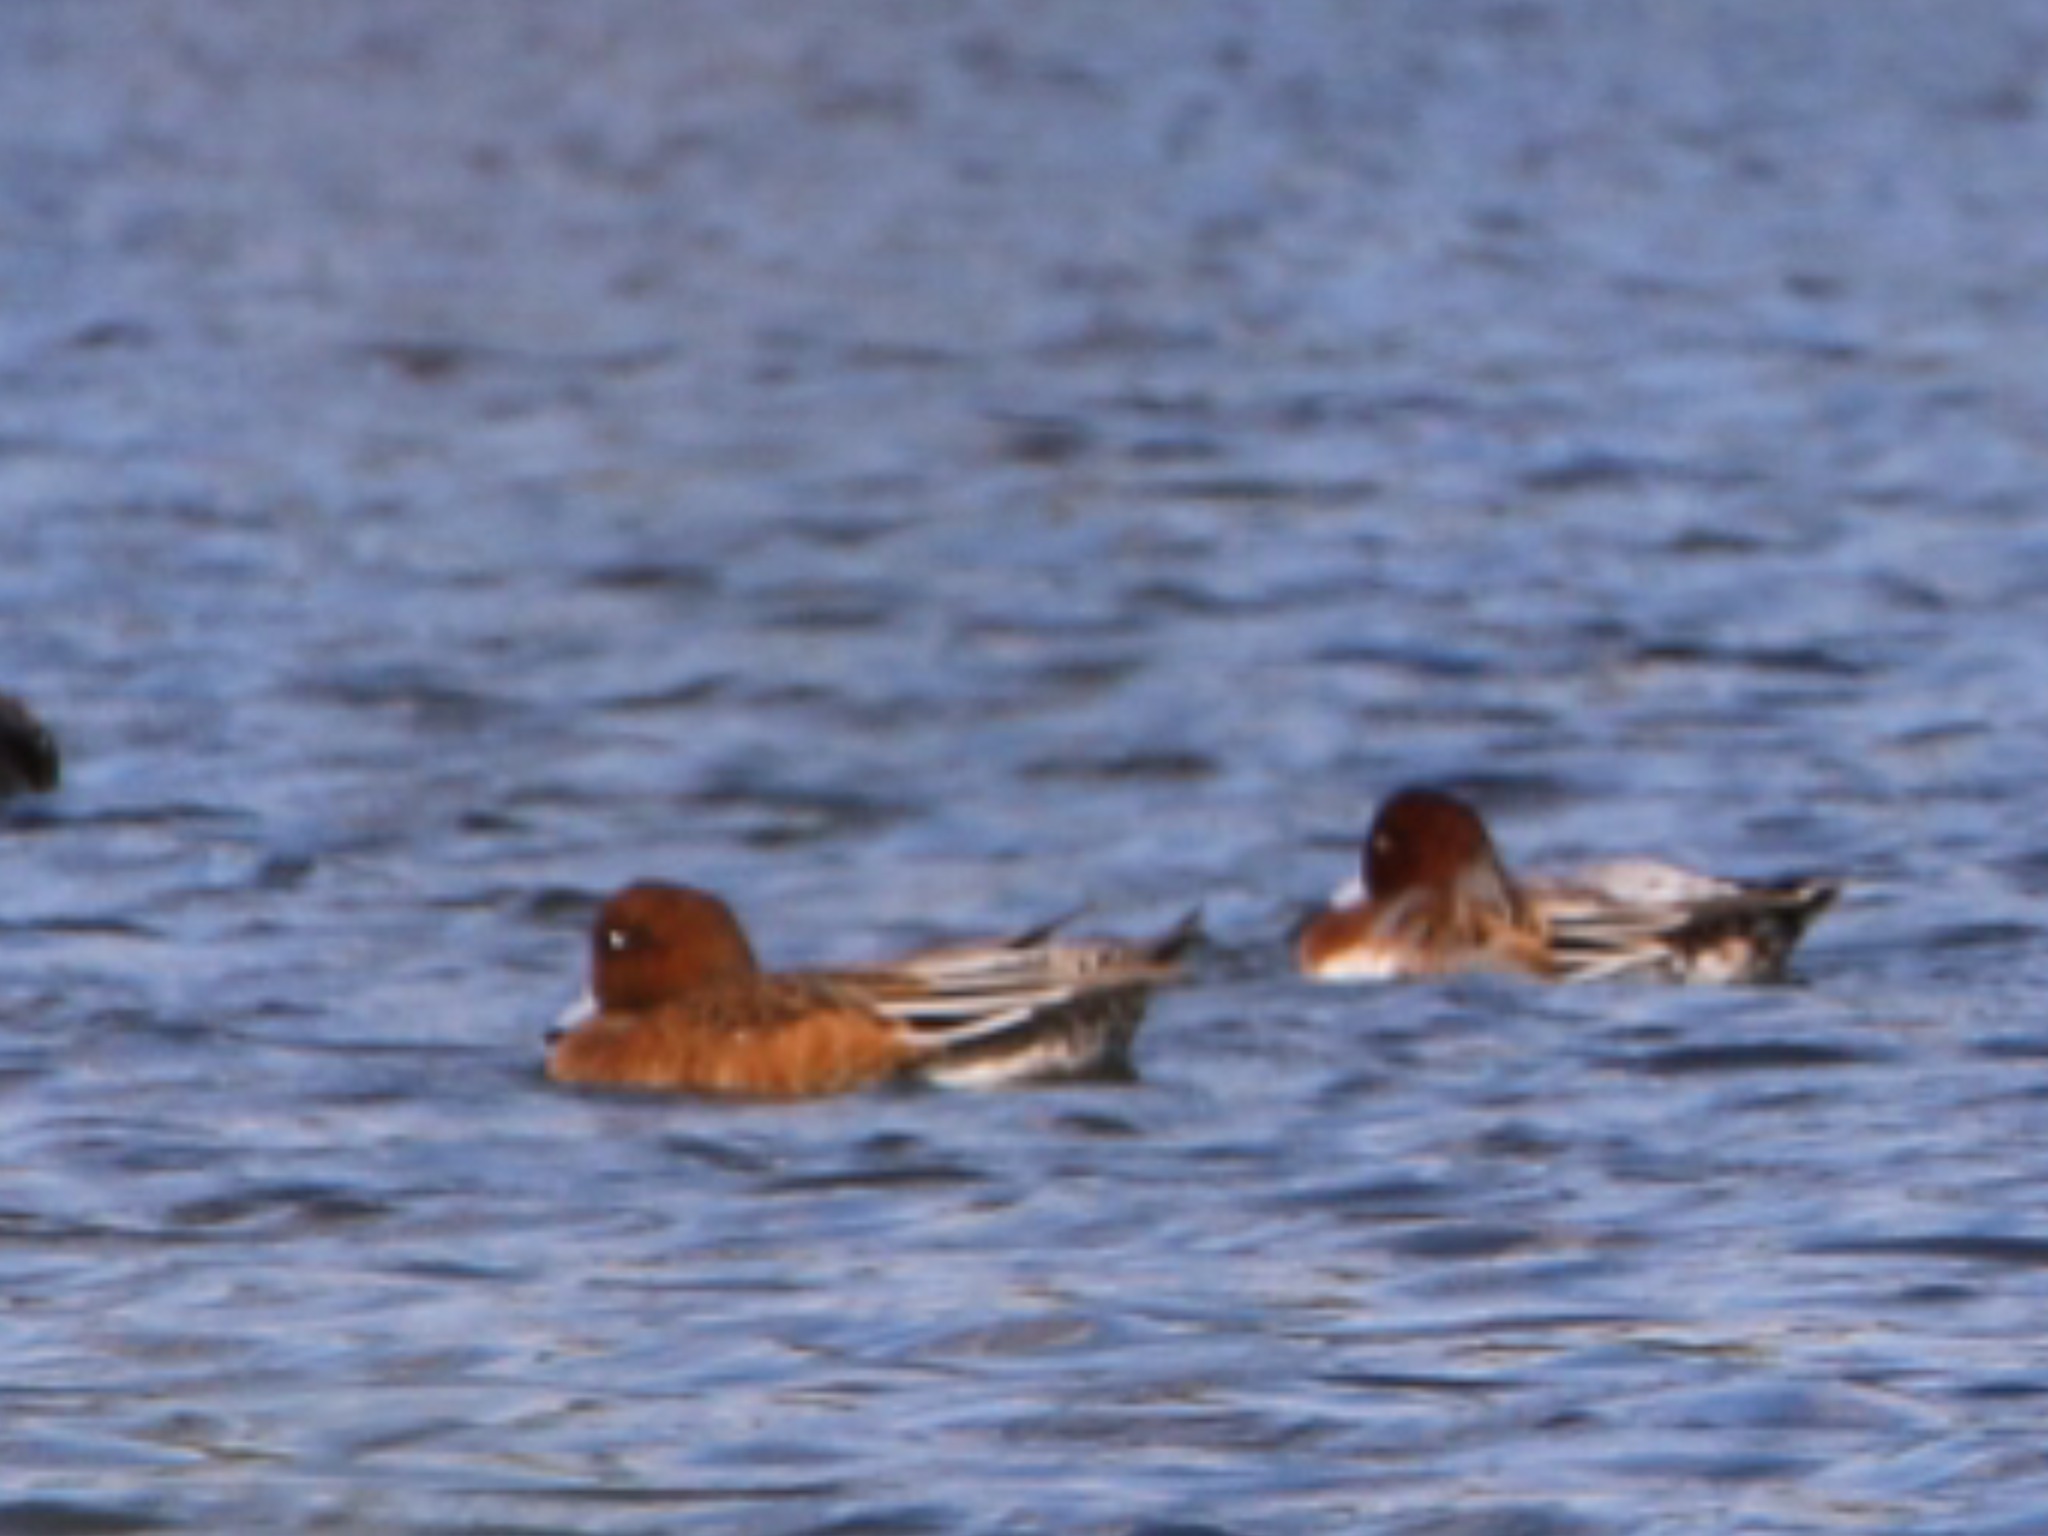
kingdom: Animalia
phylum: Chordata
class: Aves
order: Anseriformes
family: Anatidae
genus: Mareca
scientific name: Mareca penelope
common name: Pibeand
